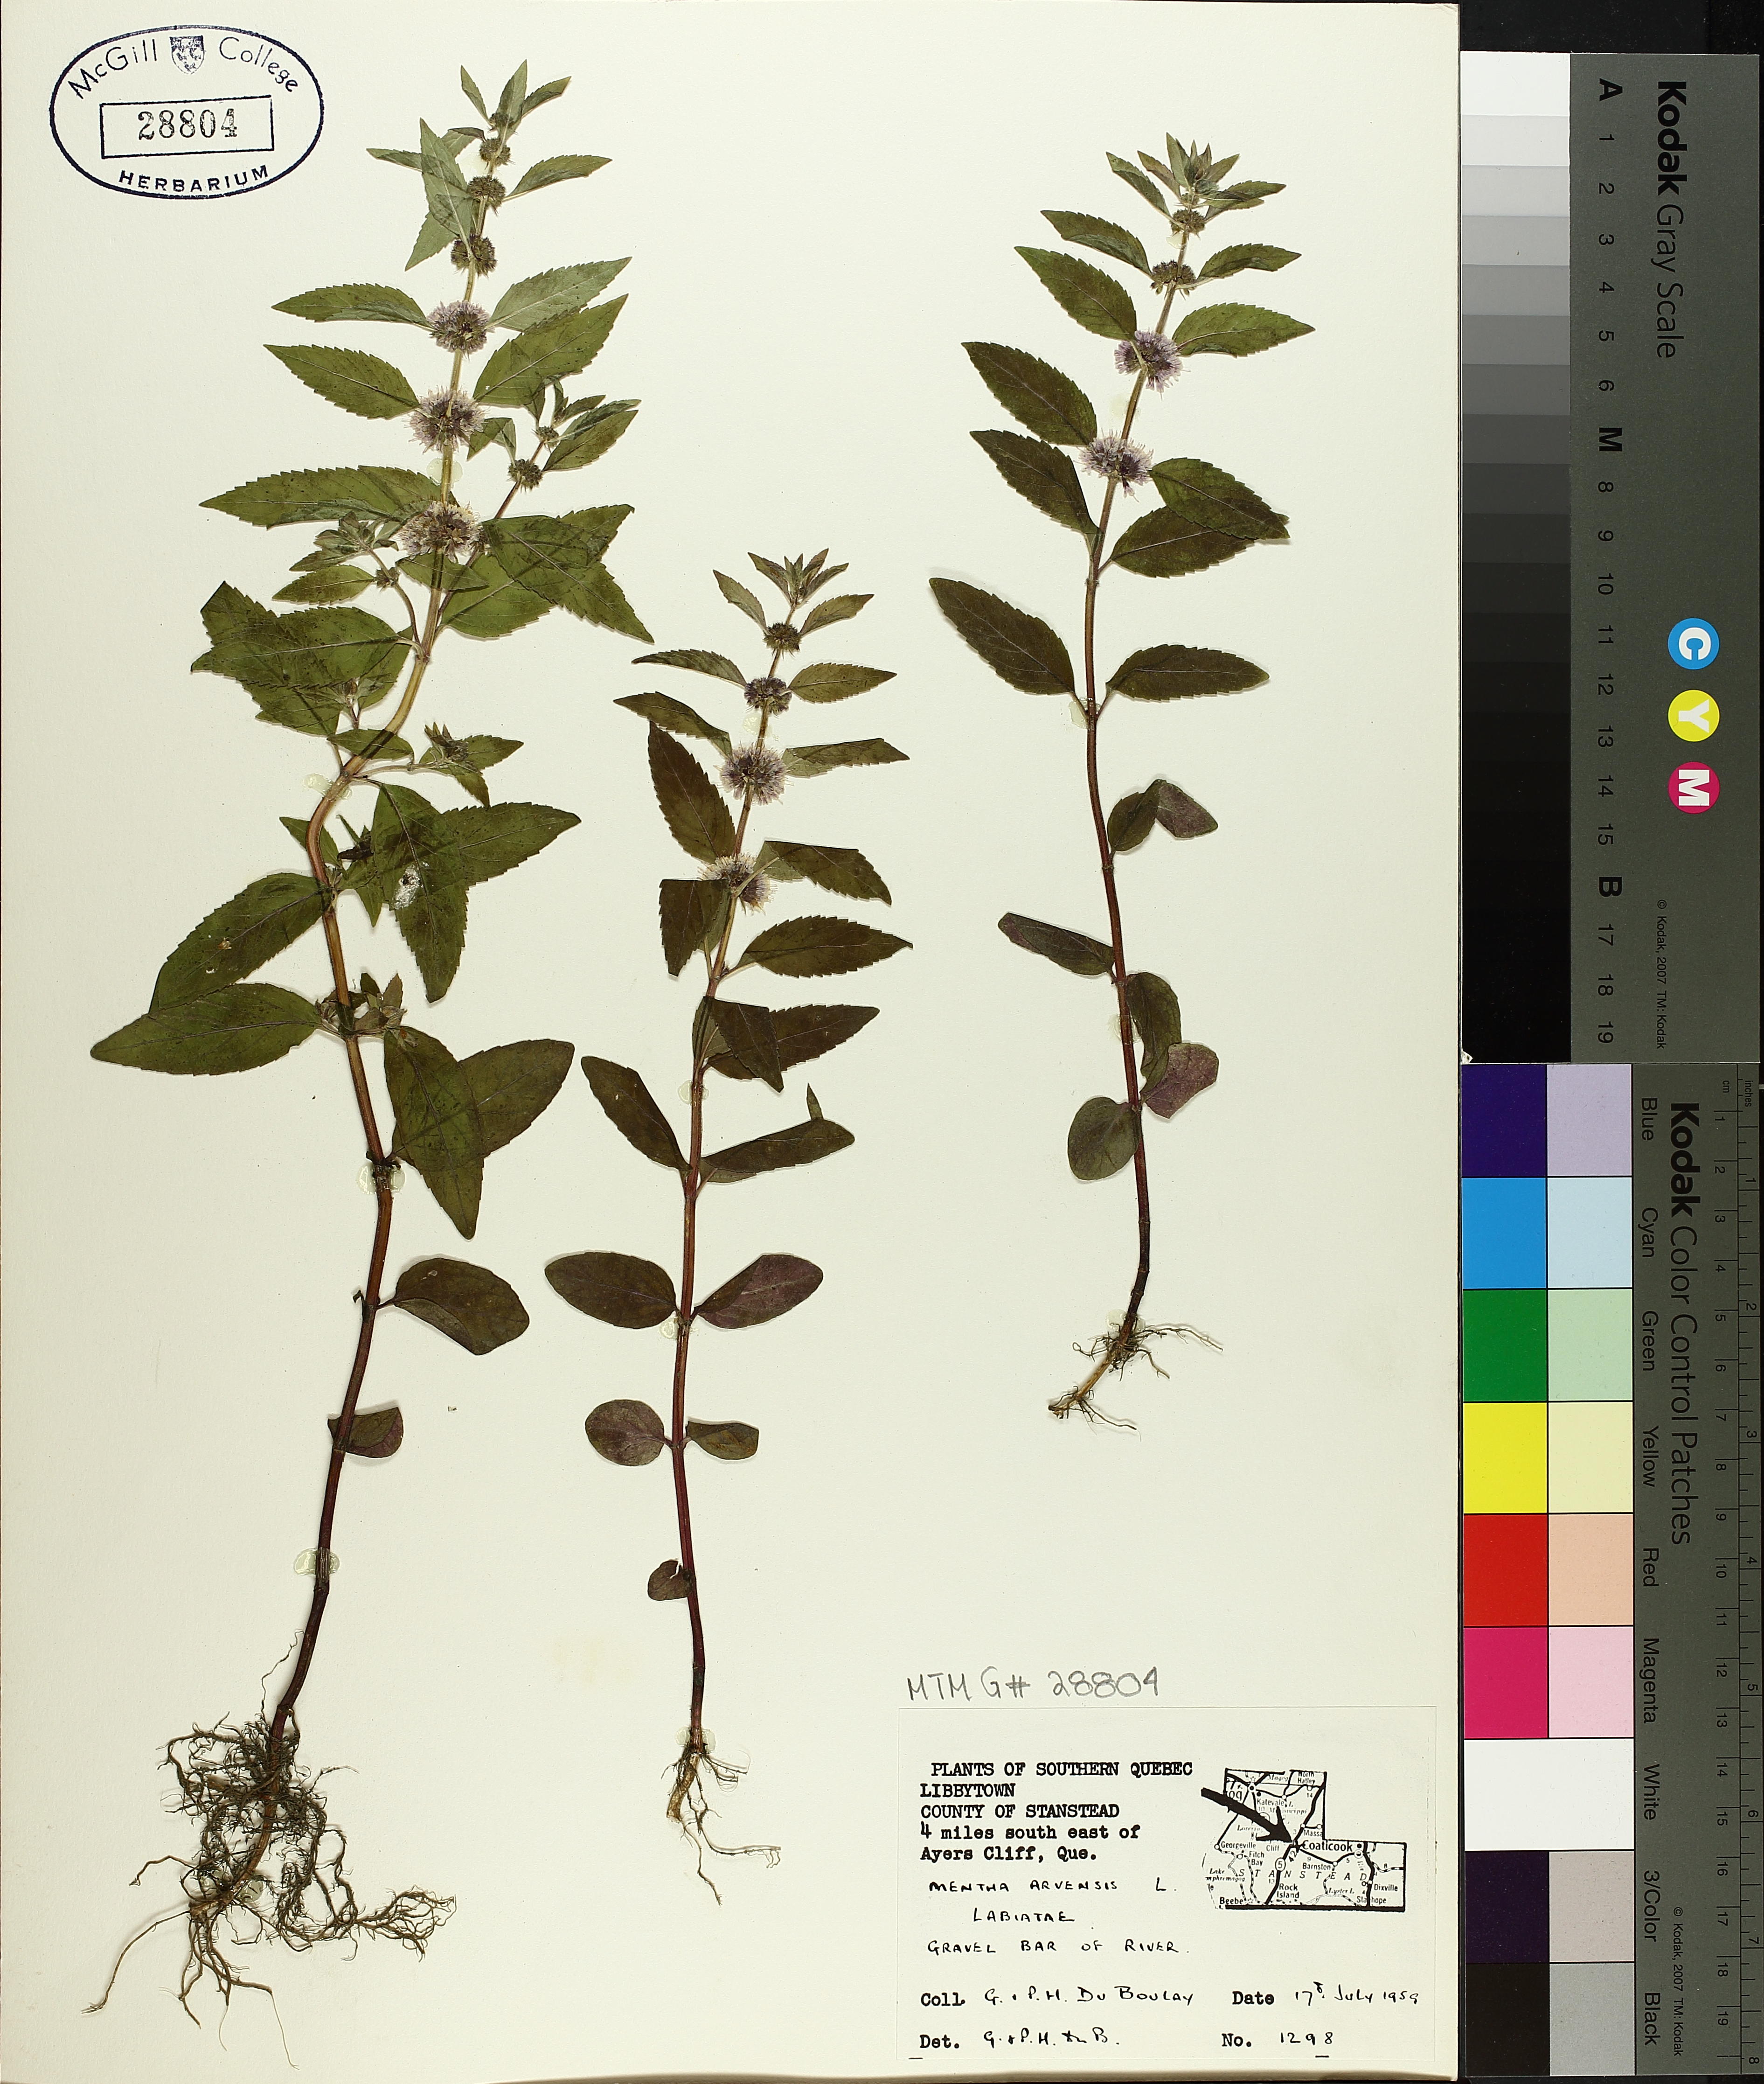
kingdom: Plantae
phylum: Tracheophyta
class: Magnoliopsida
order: Lamiales
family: Lamiaceae
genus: Mentha
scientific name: Mentha arvensis
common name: Corn mint
